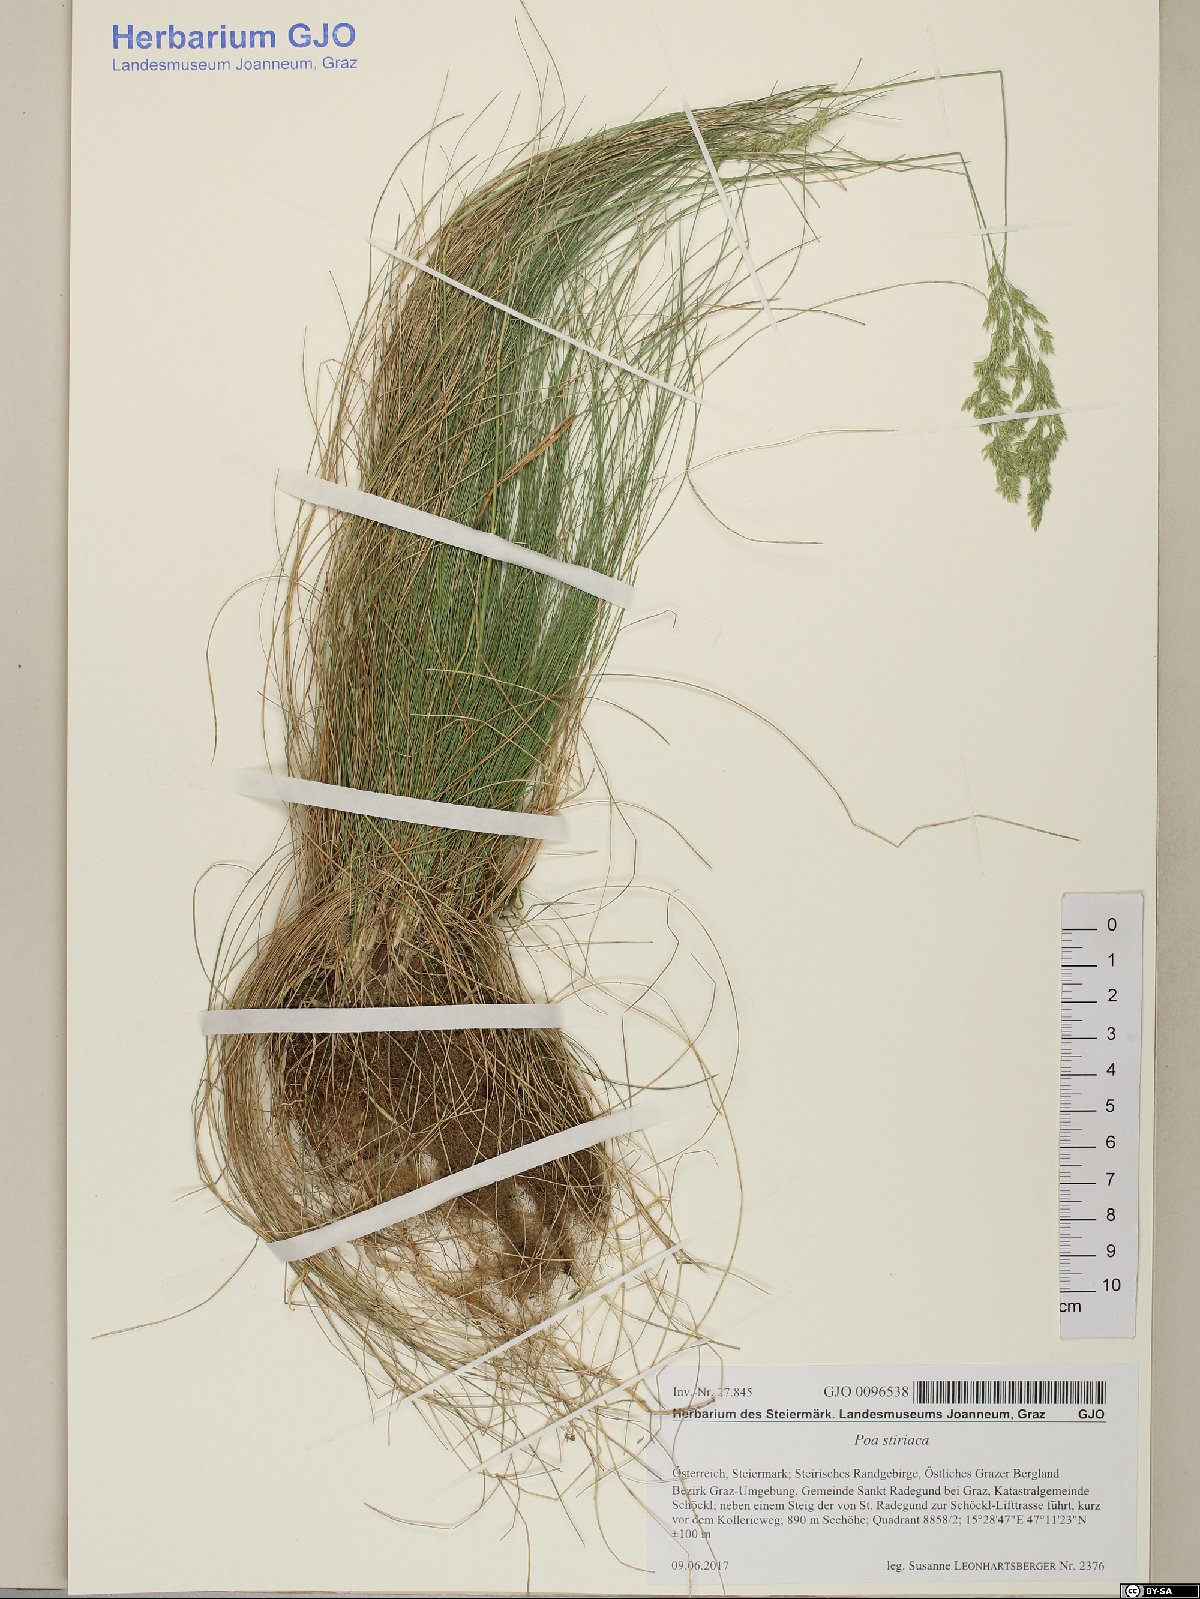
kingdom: Plantae
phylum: Tracheophyta
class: Liliopsida
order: Poales
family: Poaceae
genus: Poa
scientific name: Poa stiriaca
